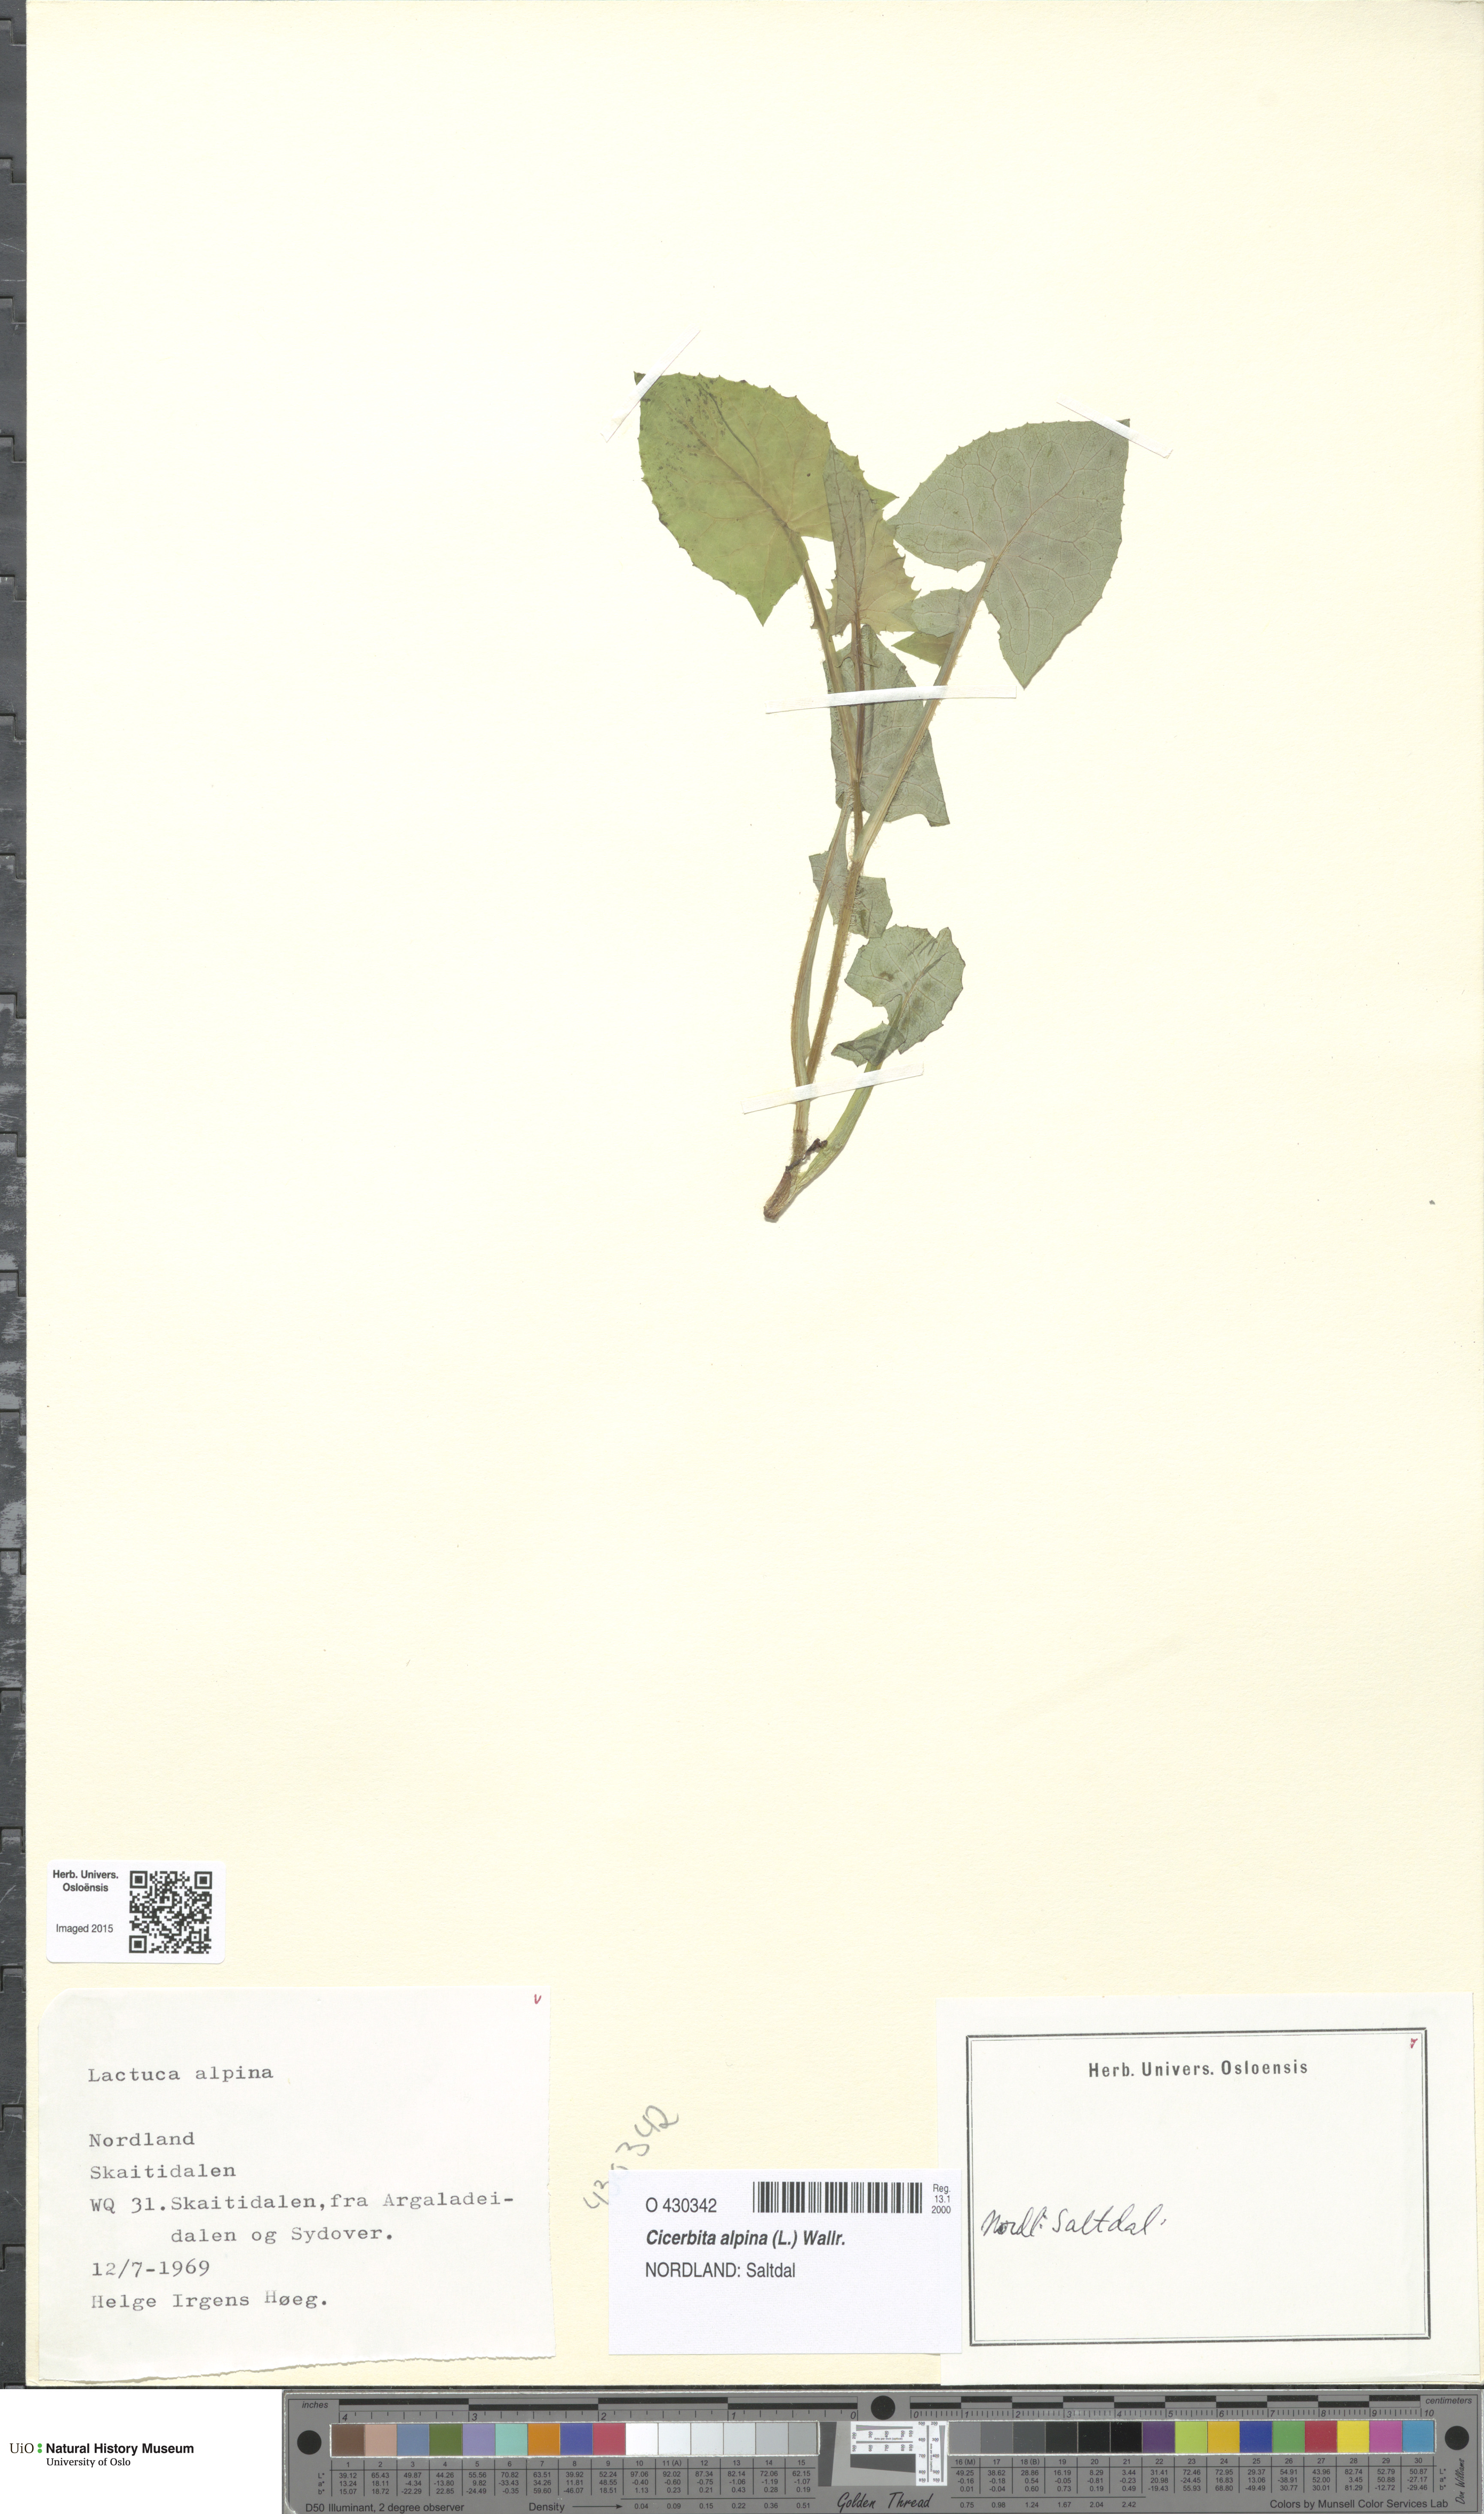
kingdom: Plantae
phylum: Tracheophyta
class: Magnoliopsida
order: Asterales
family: Asteraceae
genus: Cicerbita
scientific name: Cicerbita alpina
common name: Alpine blue-sow-thistle
